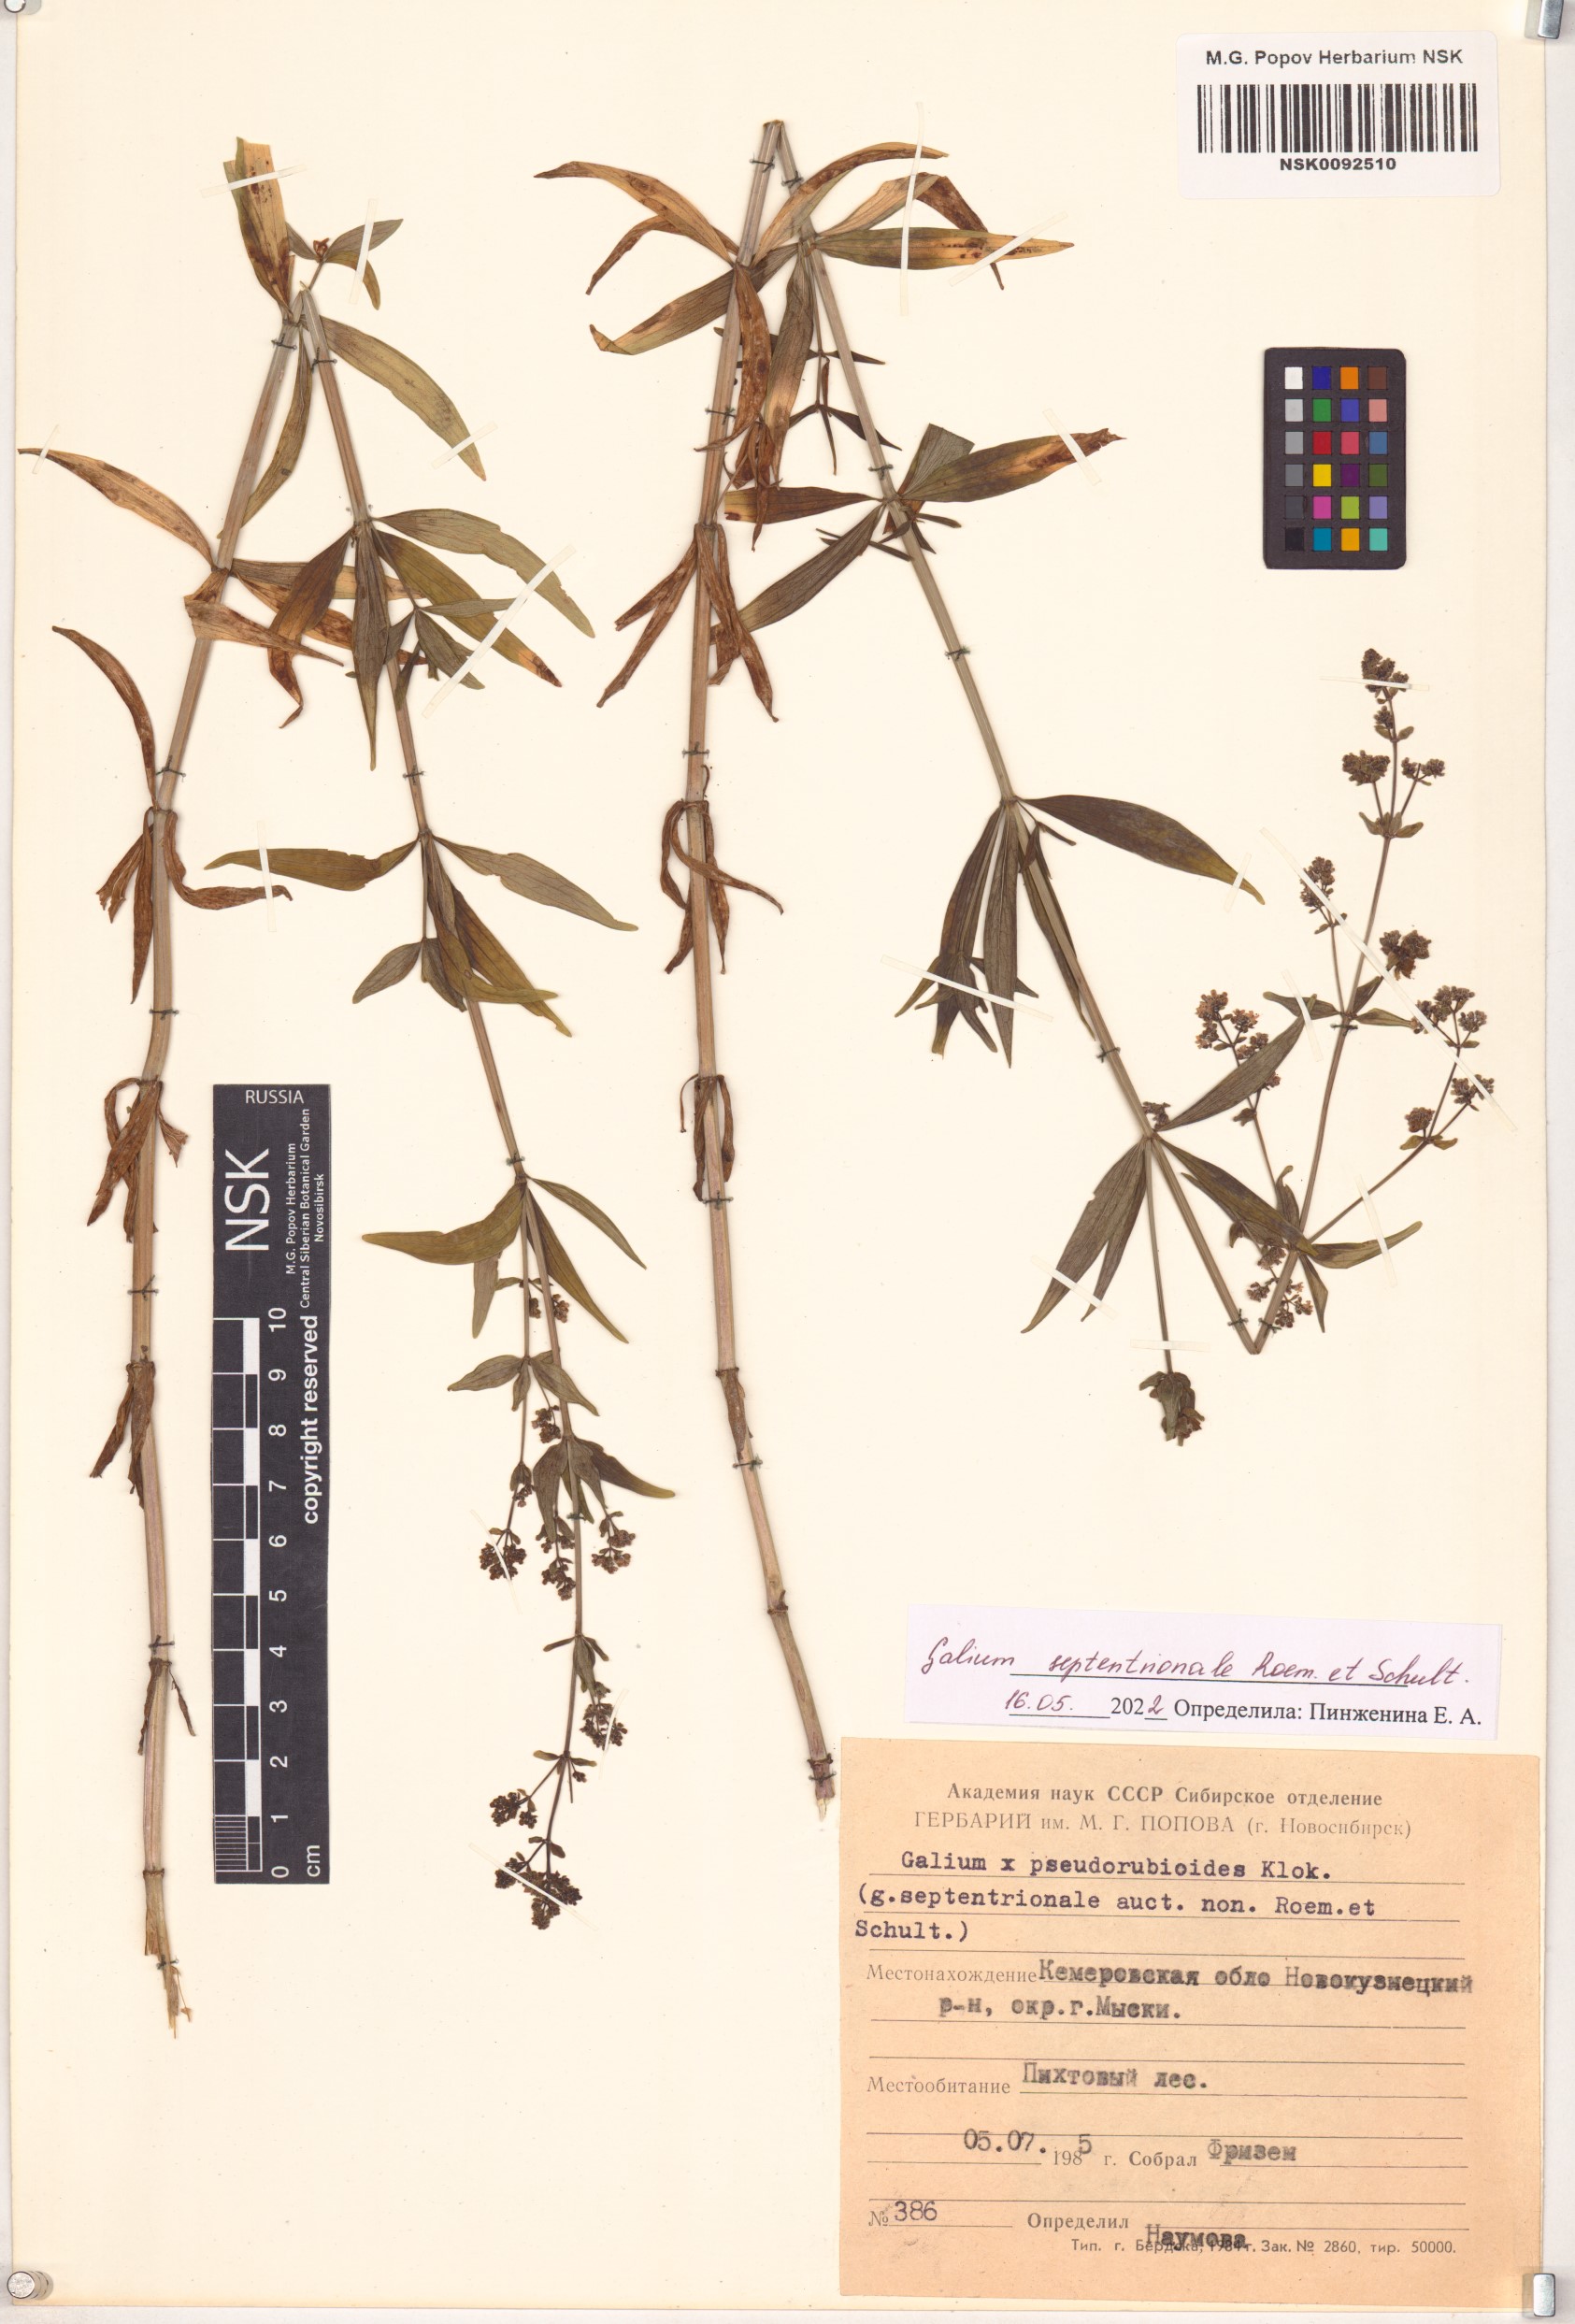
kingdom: Plantae
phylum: Tracheophyta
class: Magnoliopsida
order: Gentianales
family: Rubiaceae
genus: Galium
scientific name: Galium boreale
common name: Northern bedstraw
